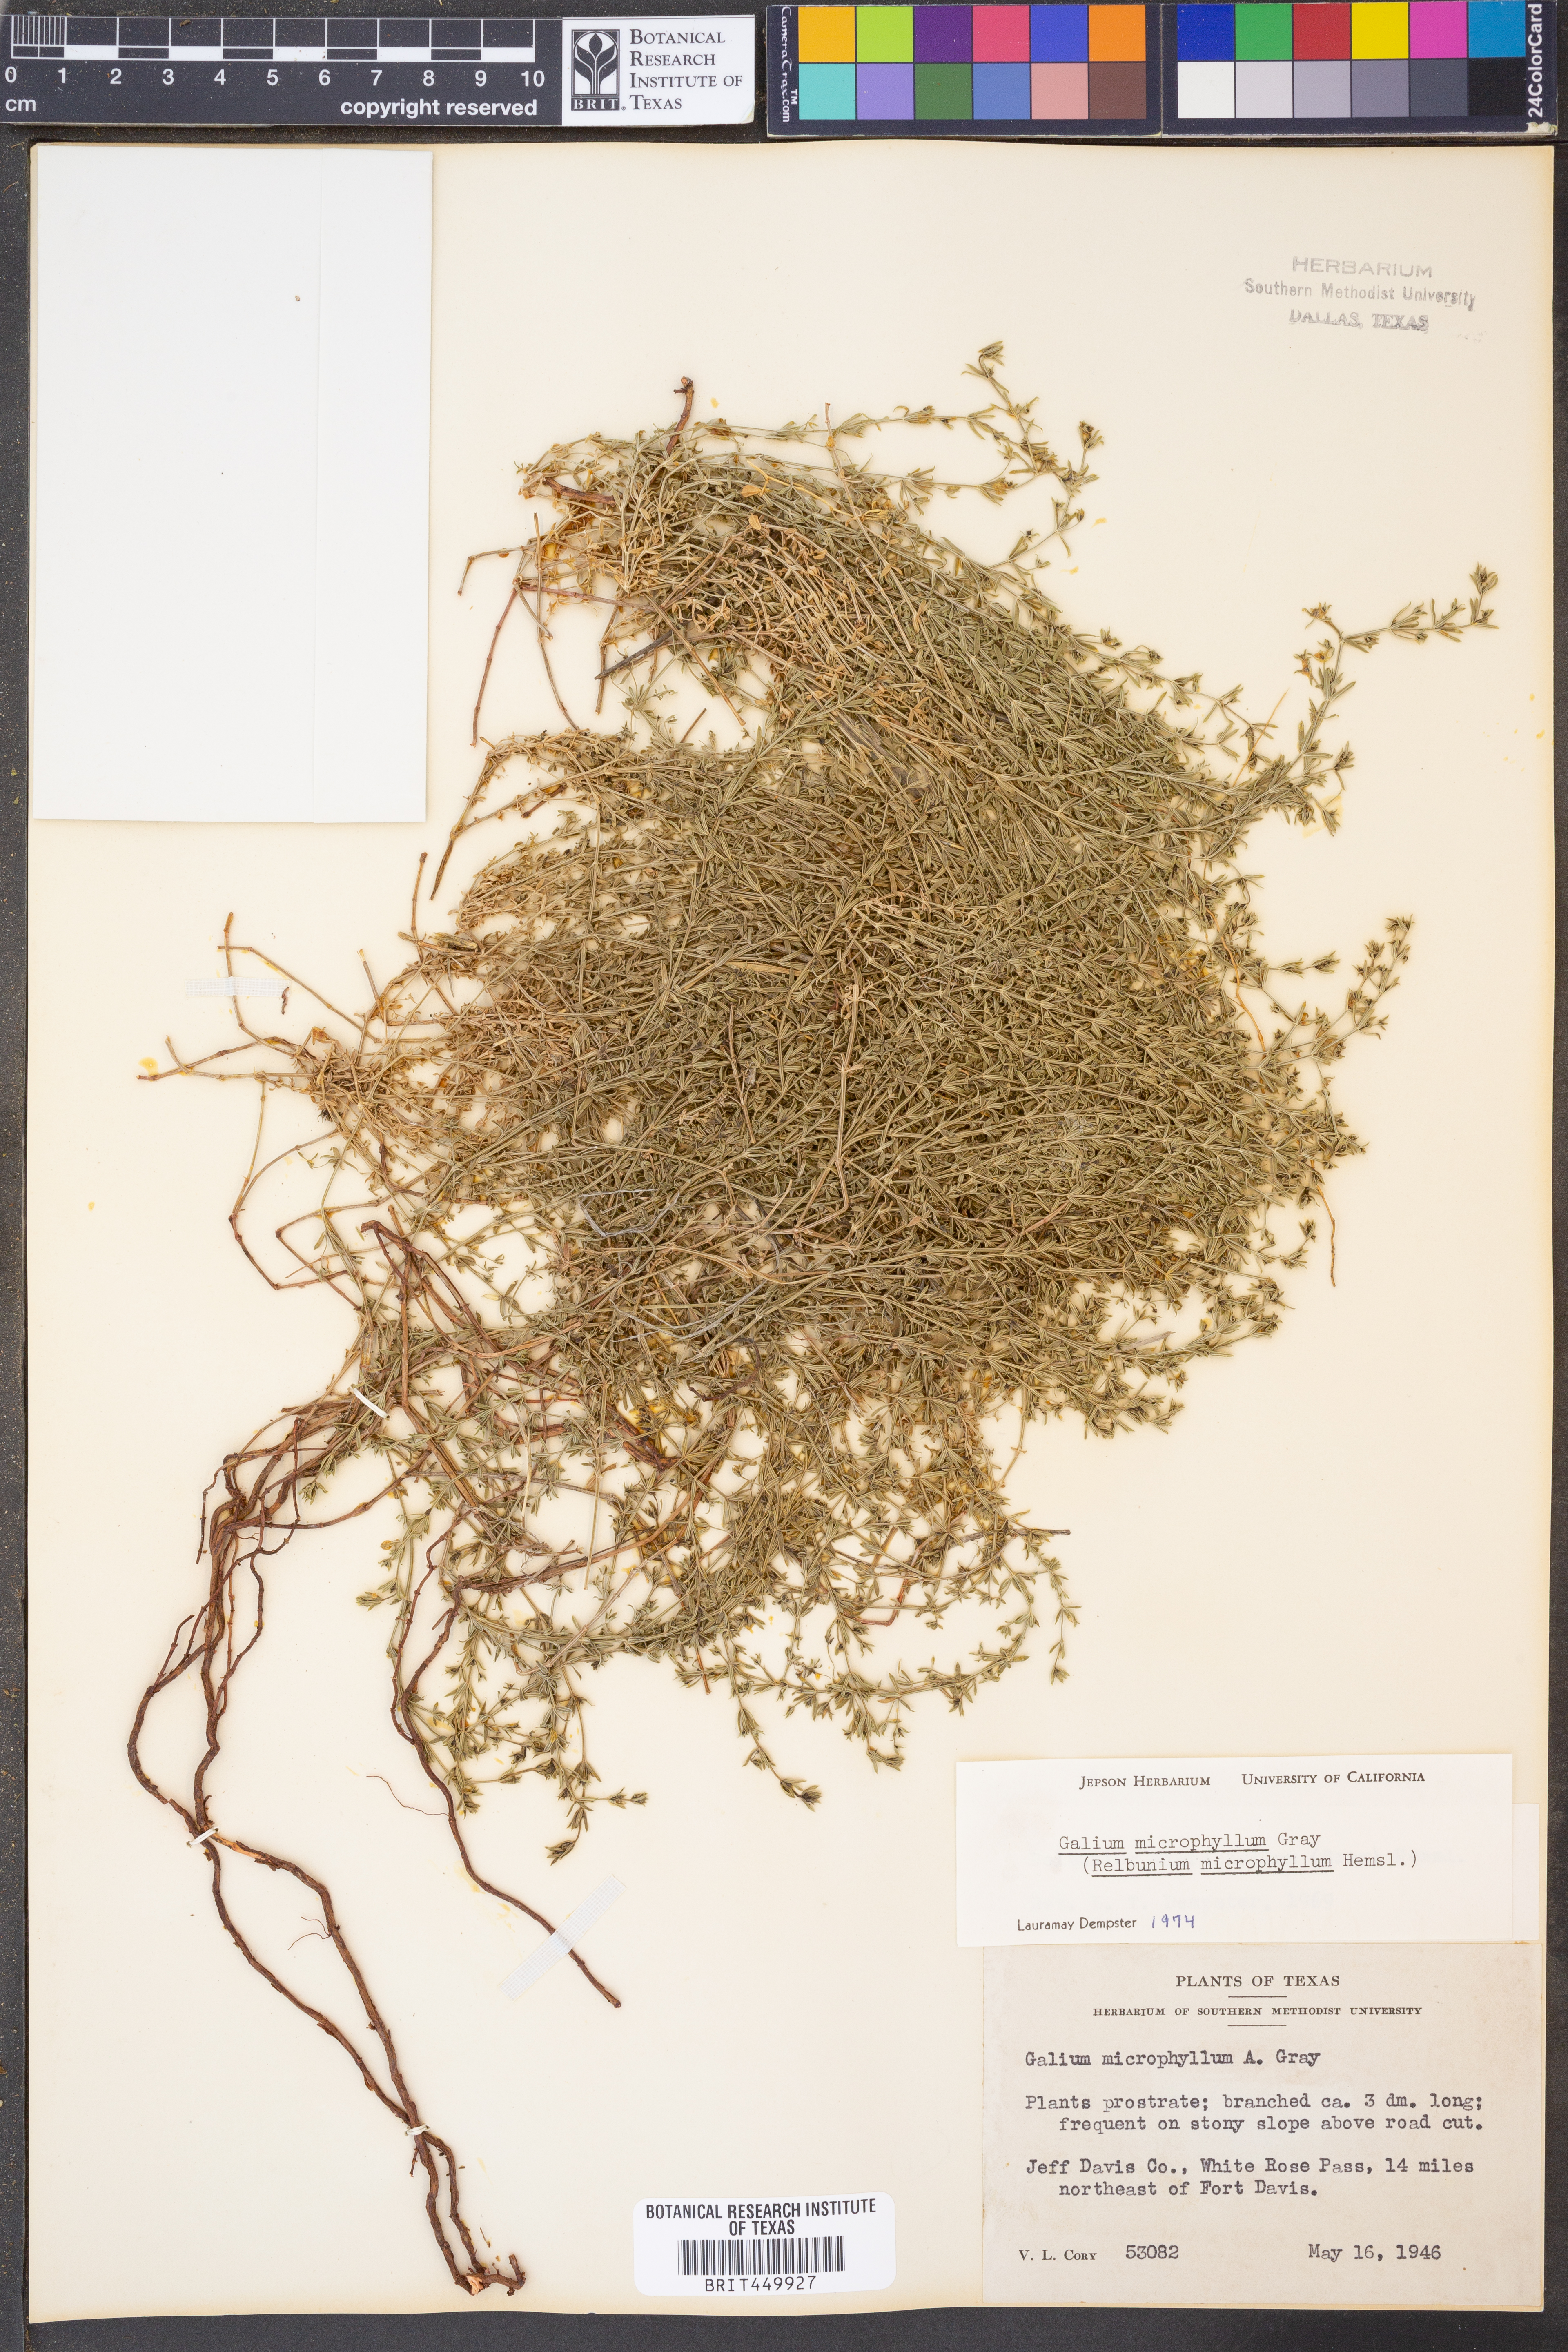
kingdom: Plantae
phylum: Tracheophyta
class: Magnoliopsida
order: Gentianales
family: Rubiaceae
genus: Galium
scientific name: Galium microphyllum
